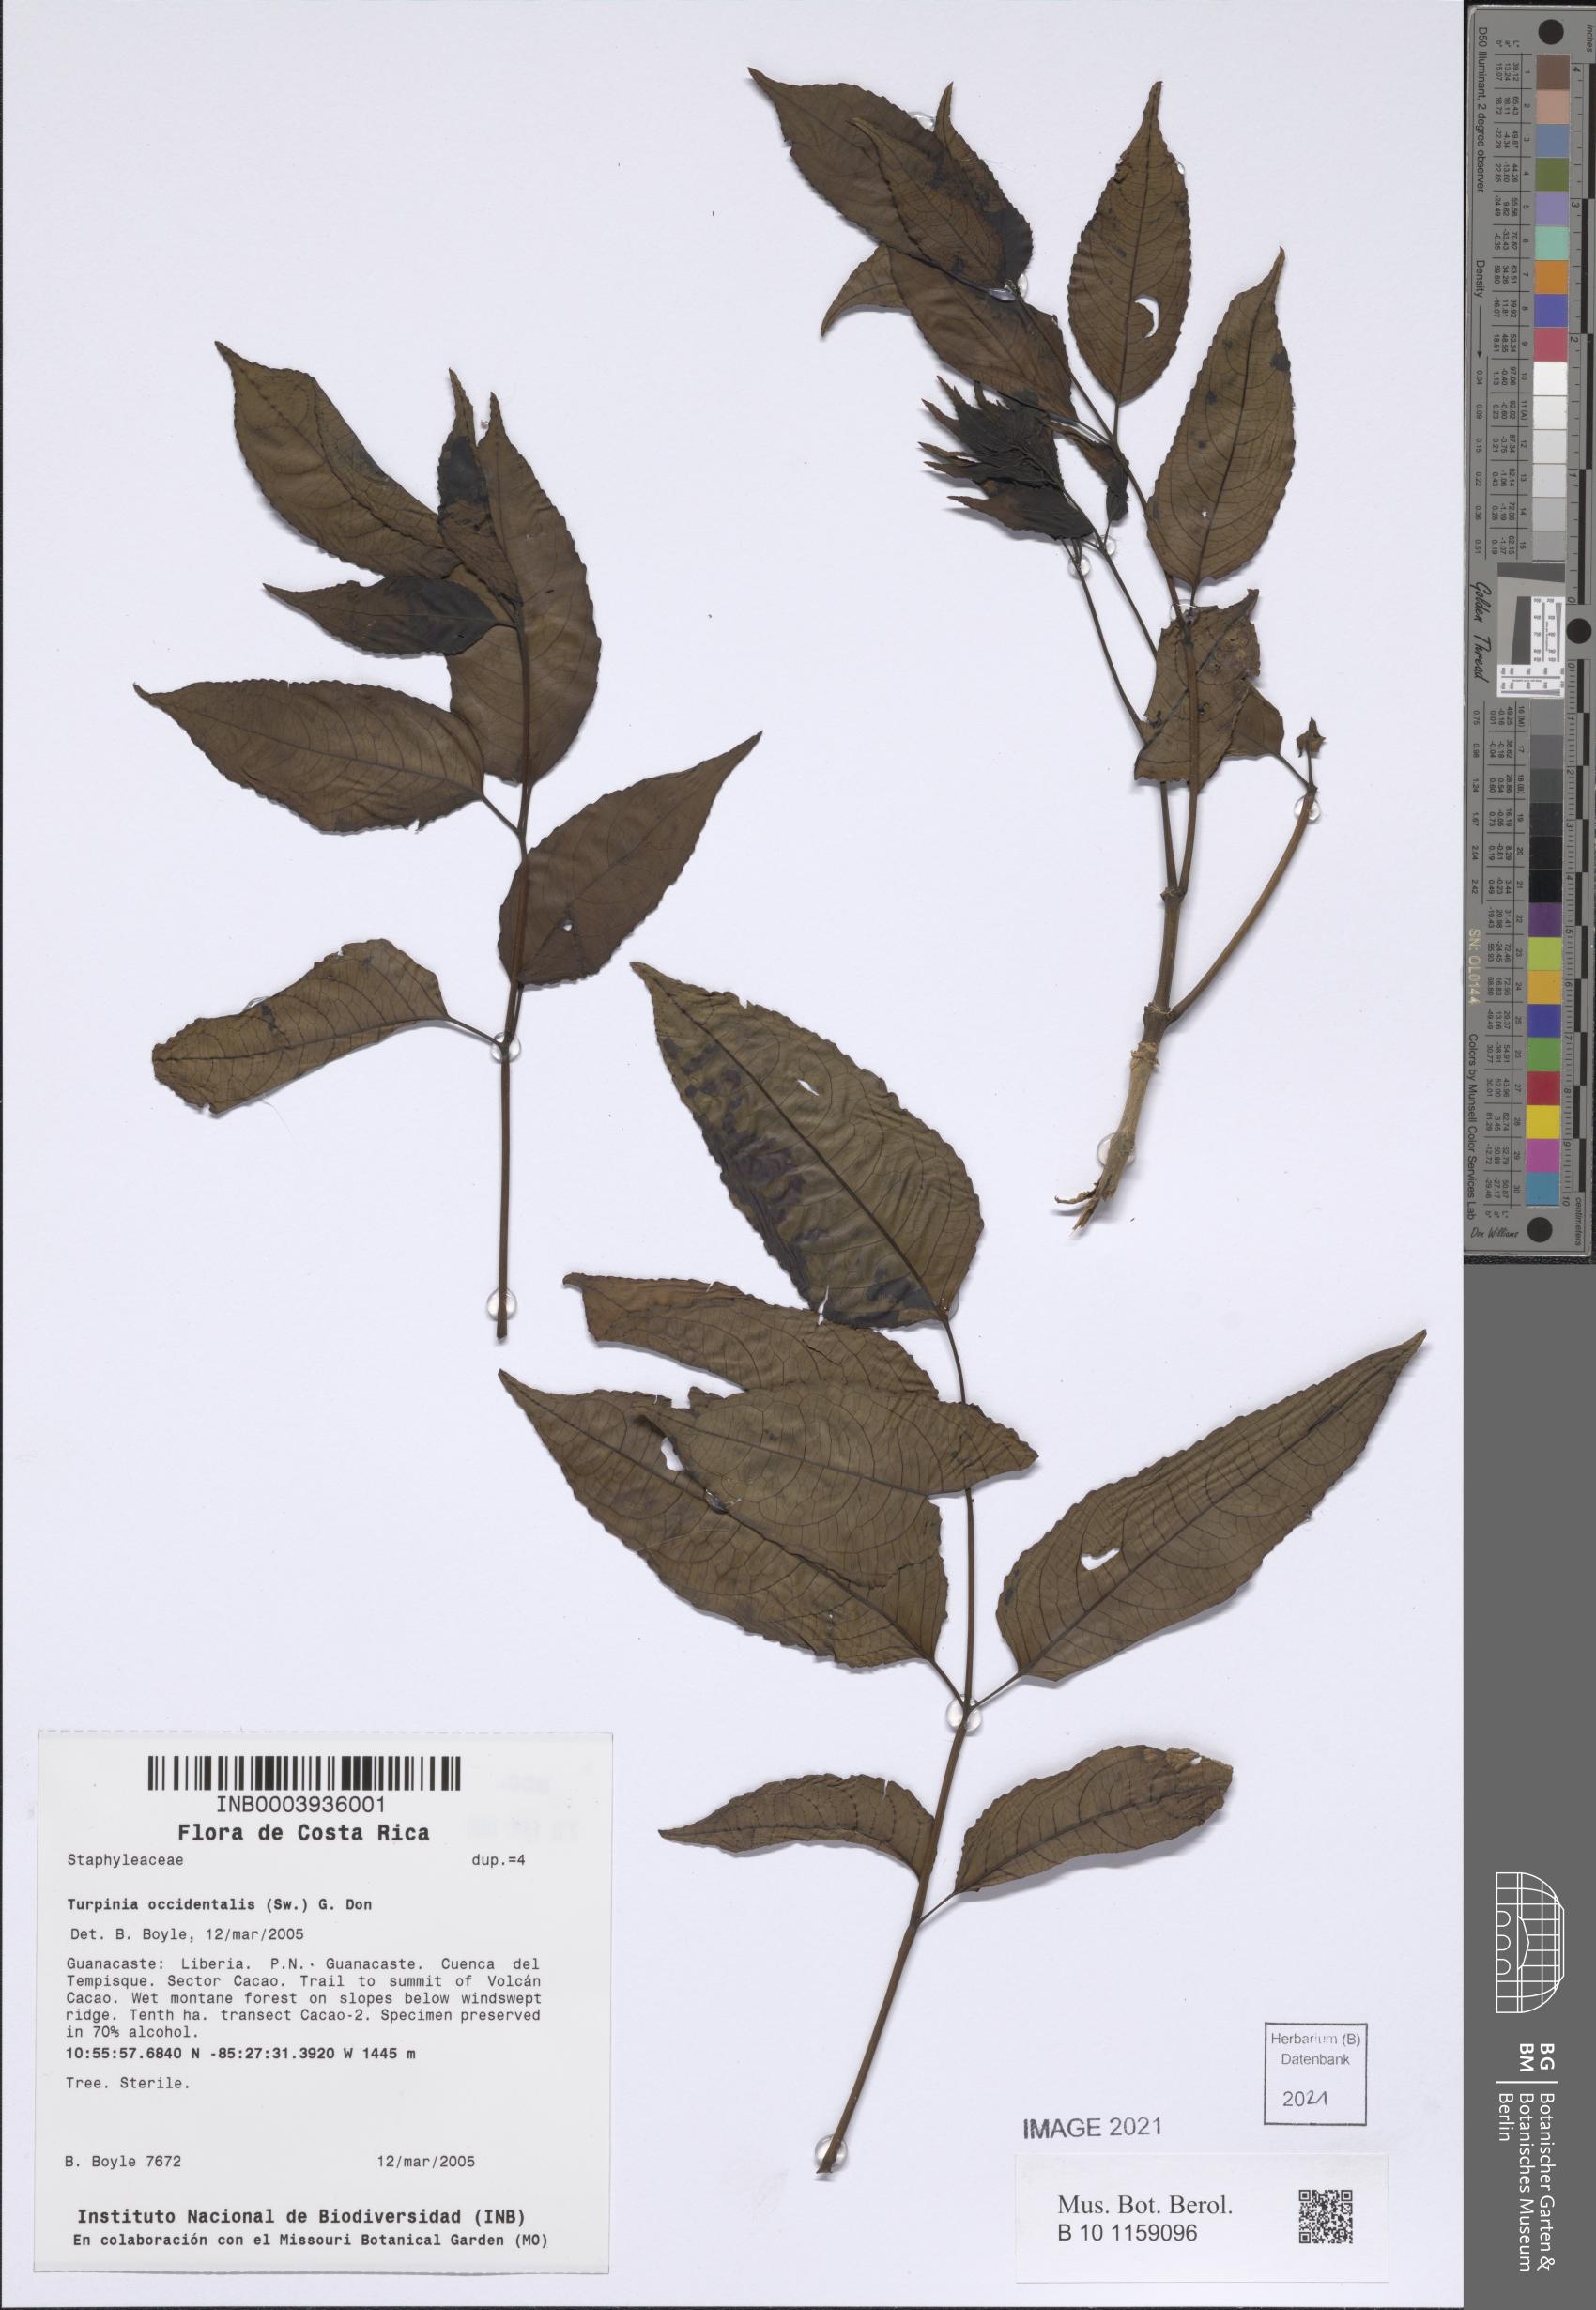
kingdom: Plantae
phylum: Tracheophyta
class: Magnoliopsida
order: Crossosomatales
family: Staphyleaceae
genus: Turpinia
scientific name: Turpinia occidentalis
